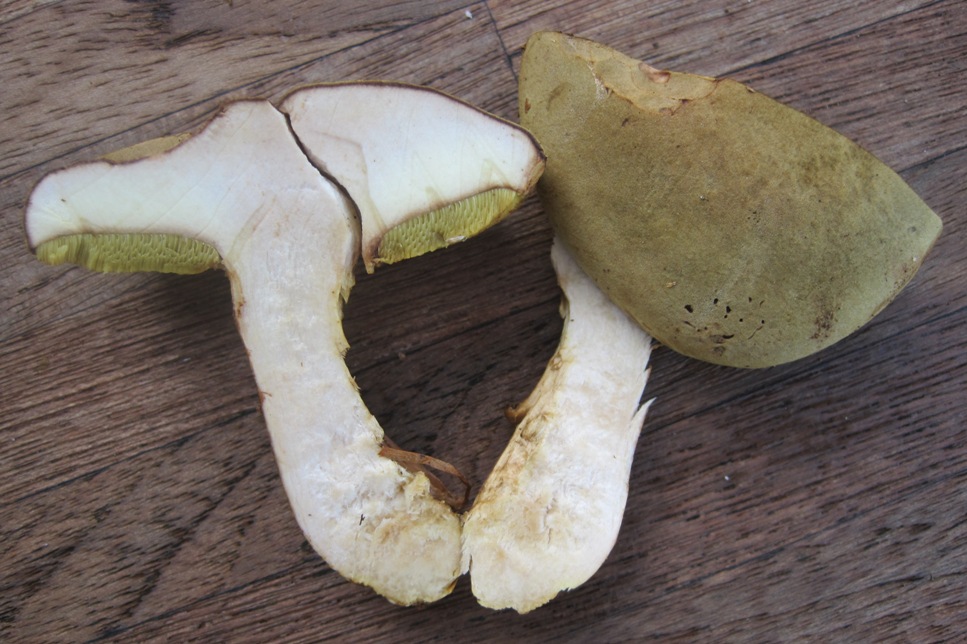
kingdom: Fungi
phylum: Basidiomycota
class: Agaricomycetes
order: Boletales
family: Boletaceae
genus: Xerocomus
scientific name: Xerocomus ferrugineus
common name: vaskeskinds-rørhat
